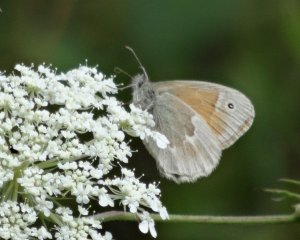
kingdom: Animalia
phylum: Arthropoda
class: Insecta
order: Lepidoptera
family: Nymphalidae
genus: Coenonympha
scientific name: Coenonympha tullia
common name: Large Heath
